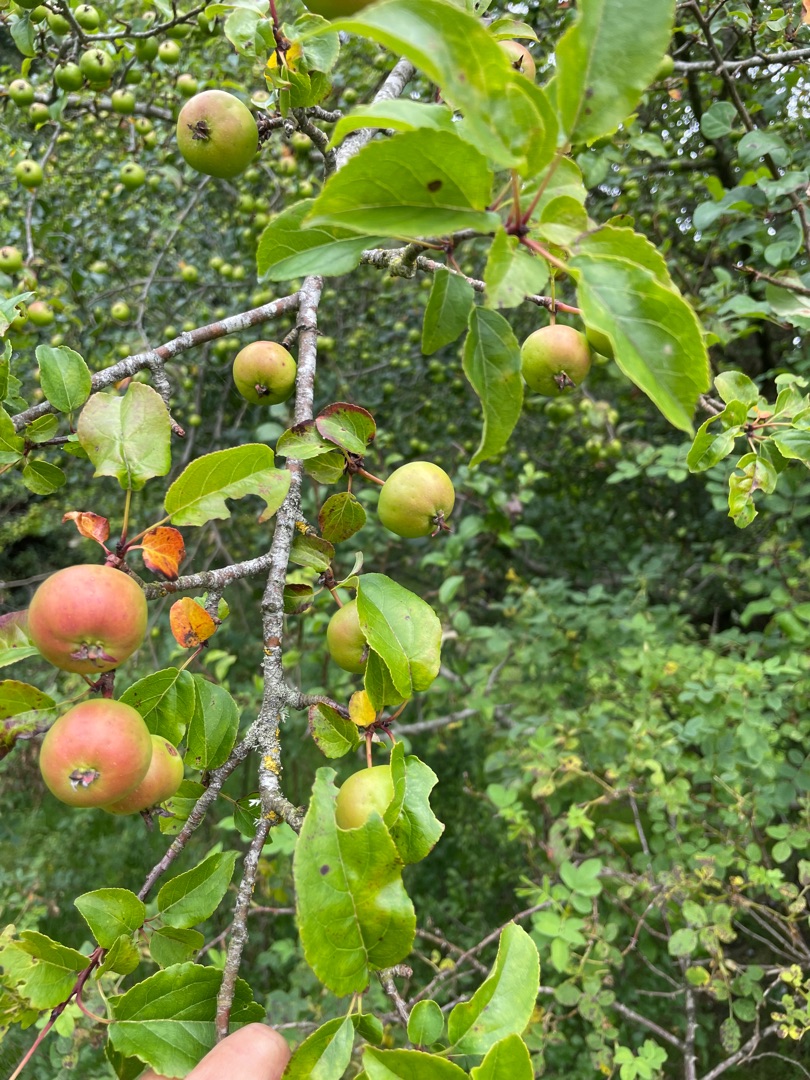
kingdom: Plantae
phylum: Tracheophyta
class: Magnoliopsida
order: Rosales
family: Rosaceae
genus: Malus
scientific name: Malus domestica
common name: Sød-æble
